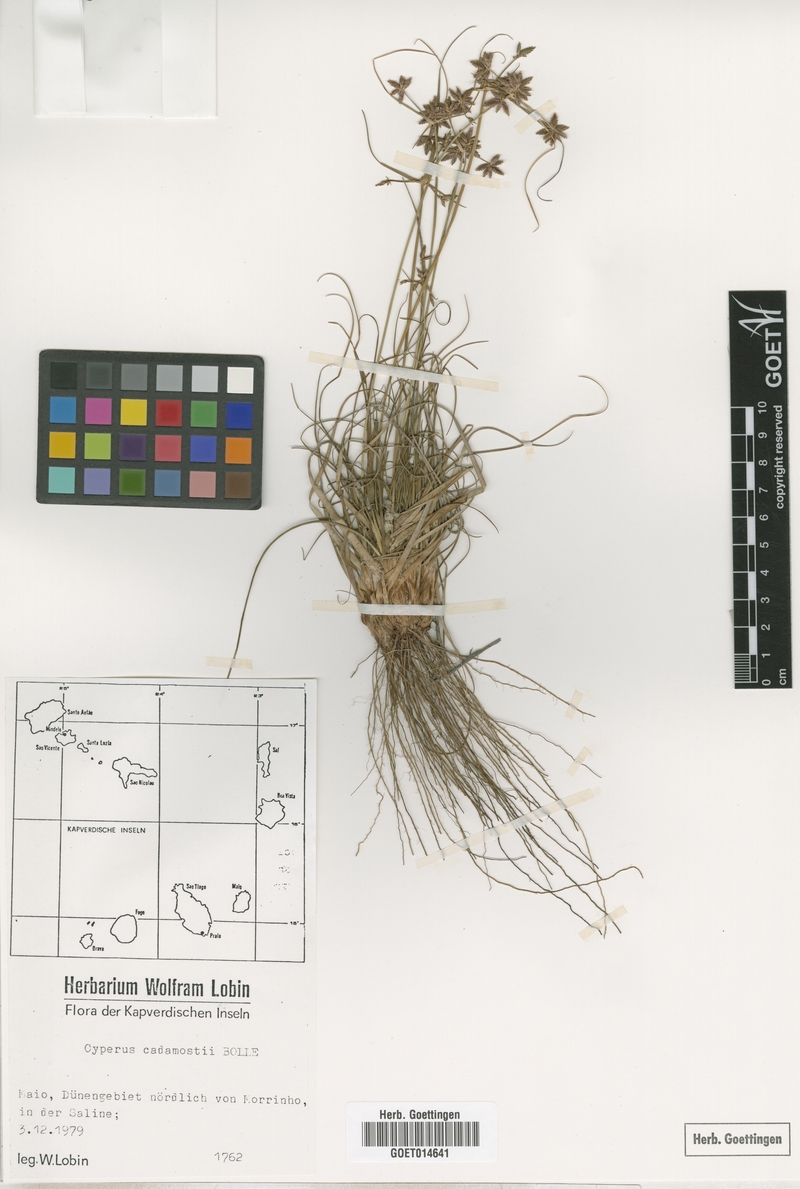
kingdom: Plantae
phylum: Tracheophyta
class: Liliopsida
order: Poales
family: Cyperaceae
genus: Cyperus
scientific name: Cyperus jeminicus
